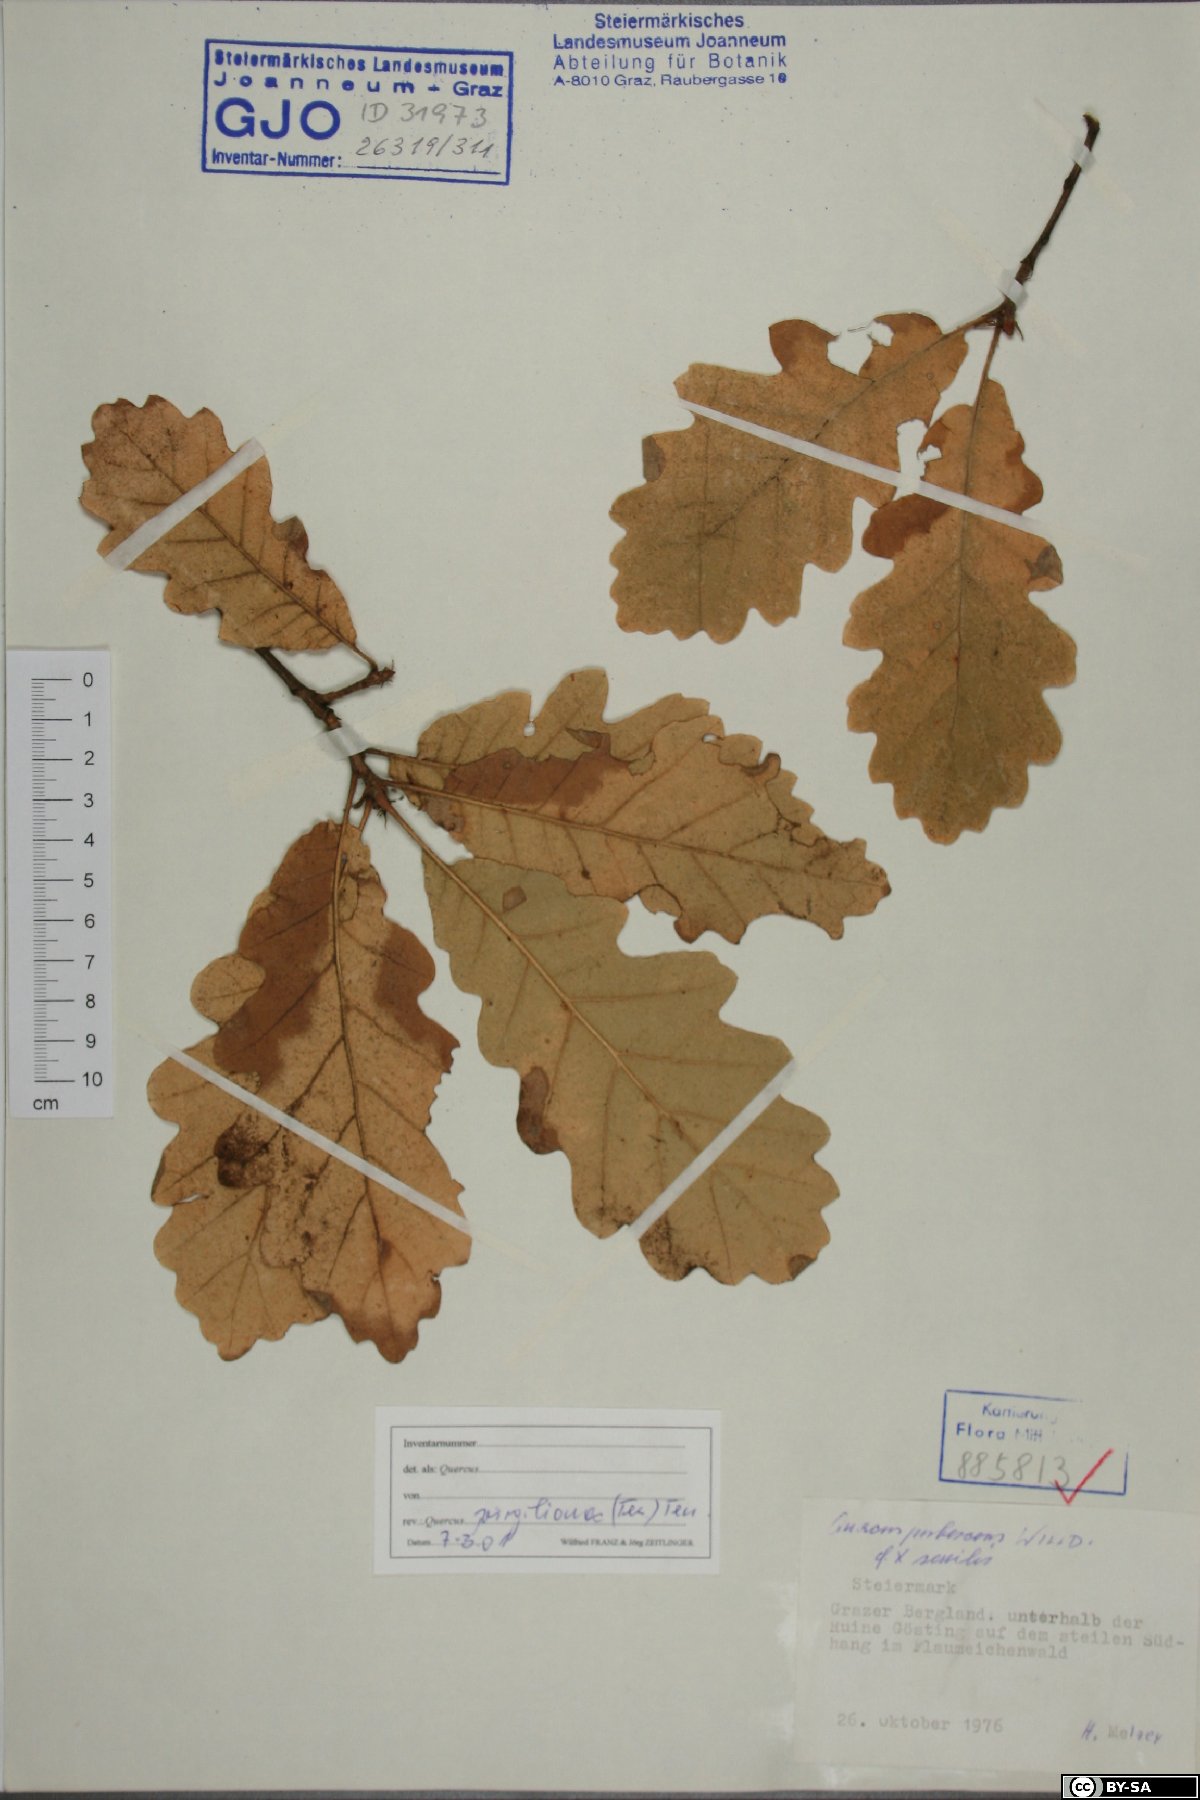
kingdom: Plantae
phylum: Tracheophyta
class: Magnoliopsida
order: Fagales
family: Fagaceae
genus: Quercus
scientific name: Quercus pubescens
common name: Downy oak
